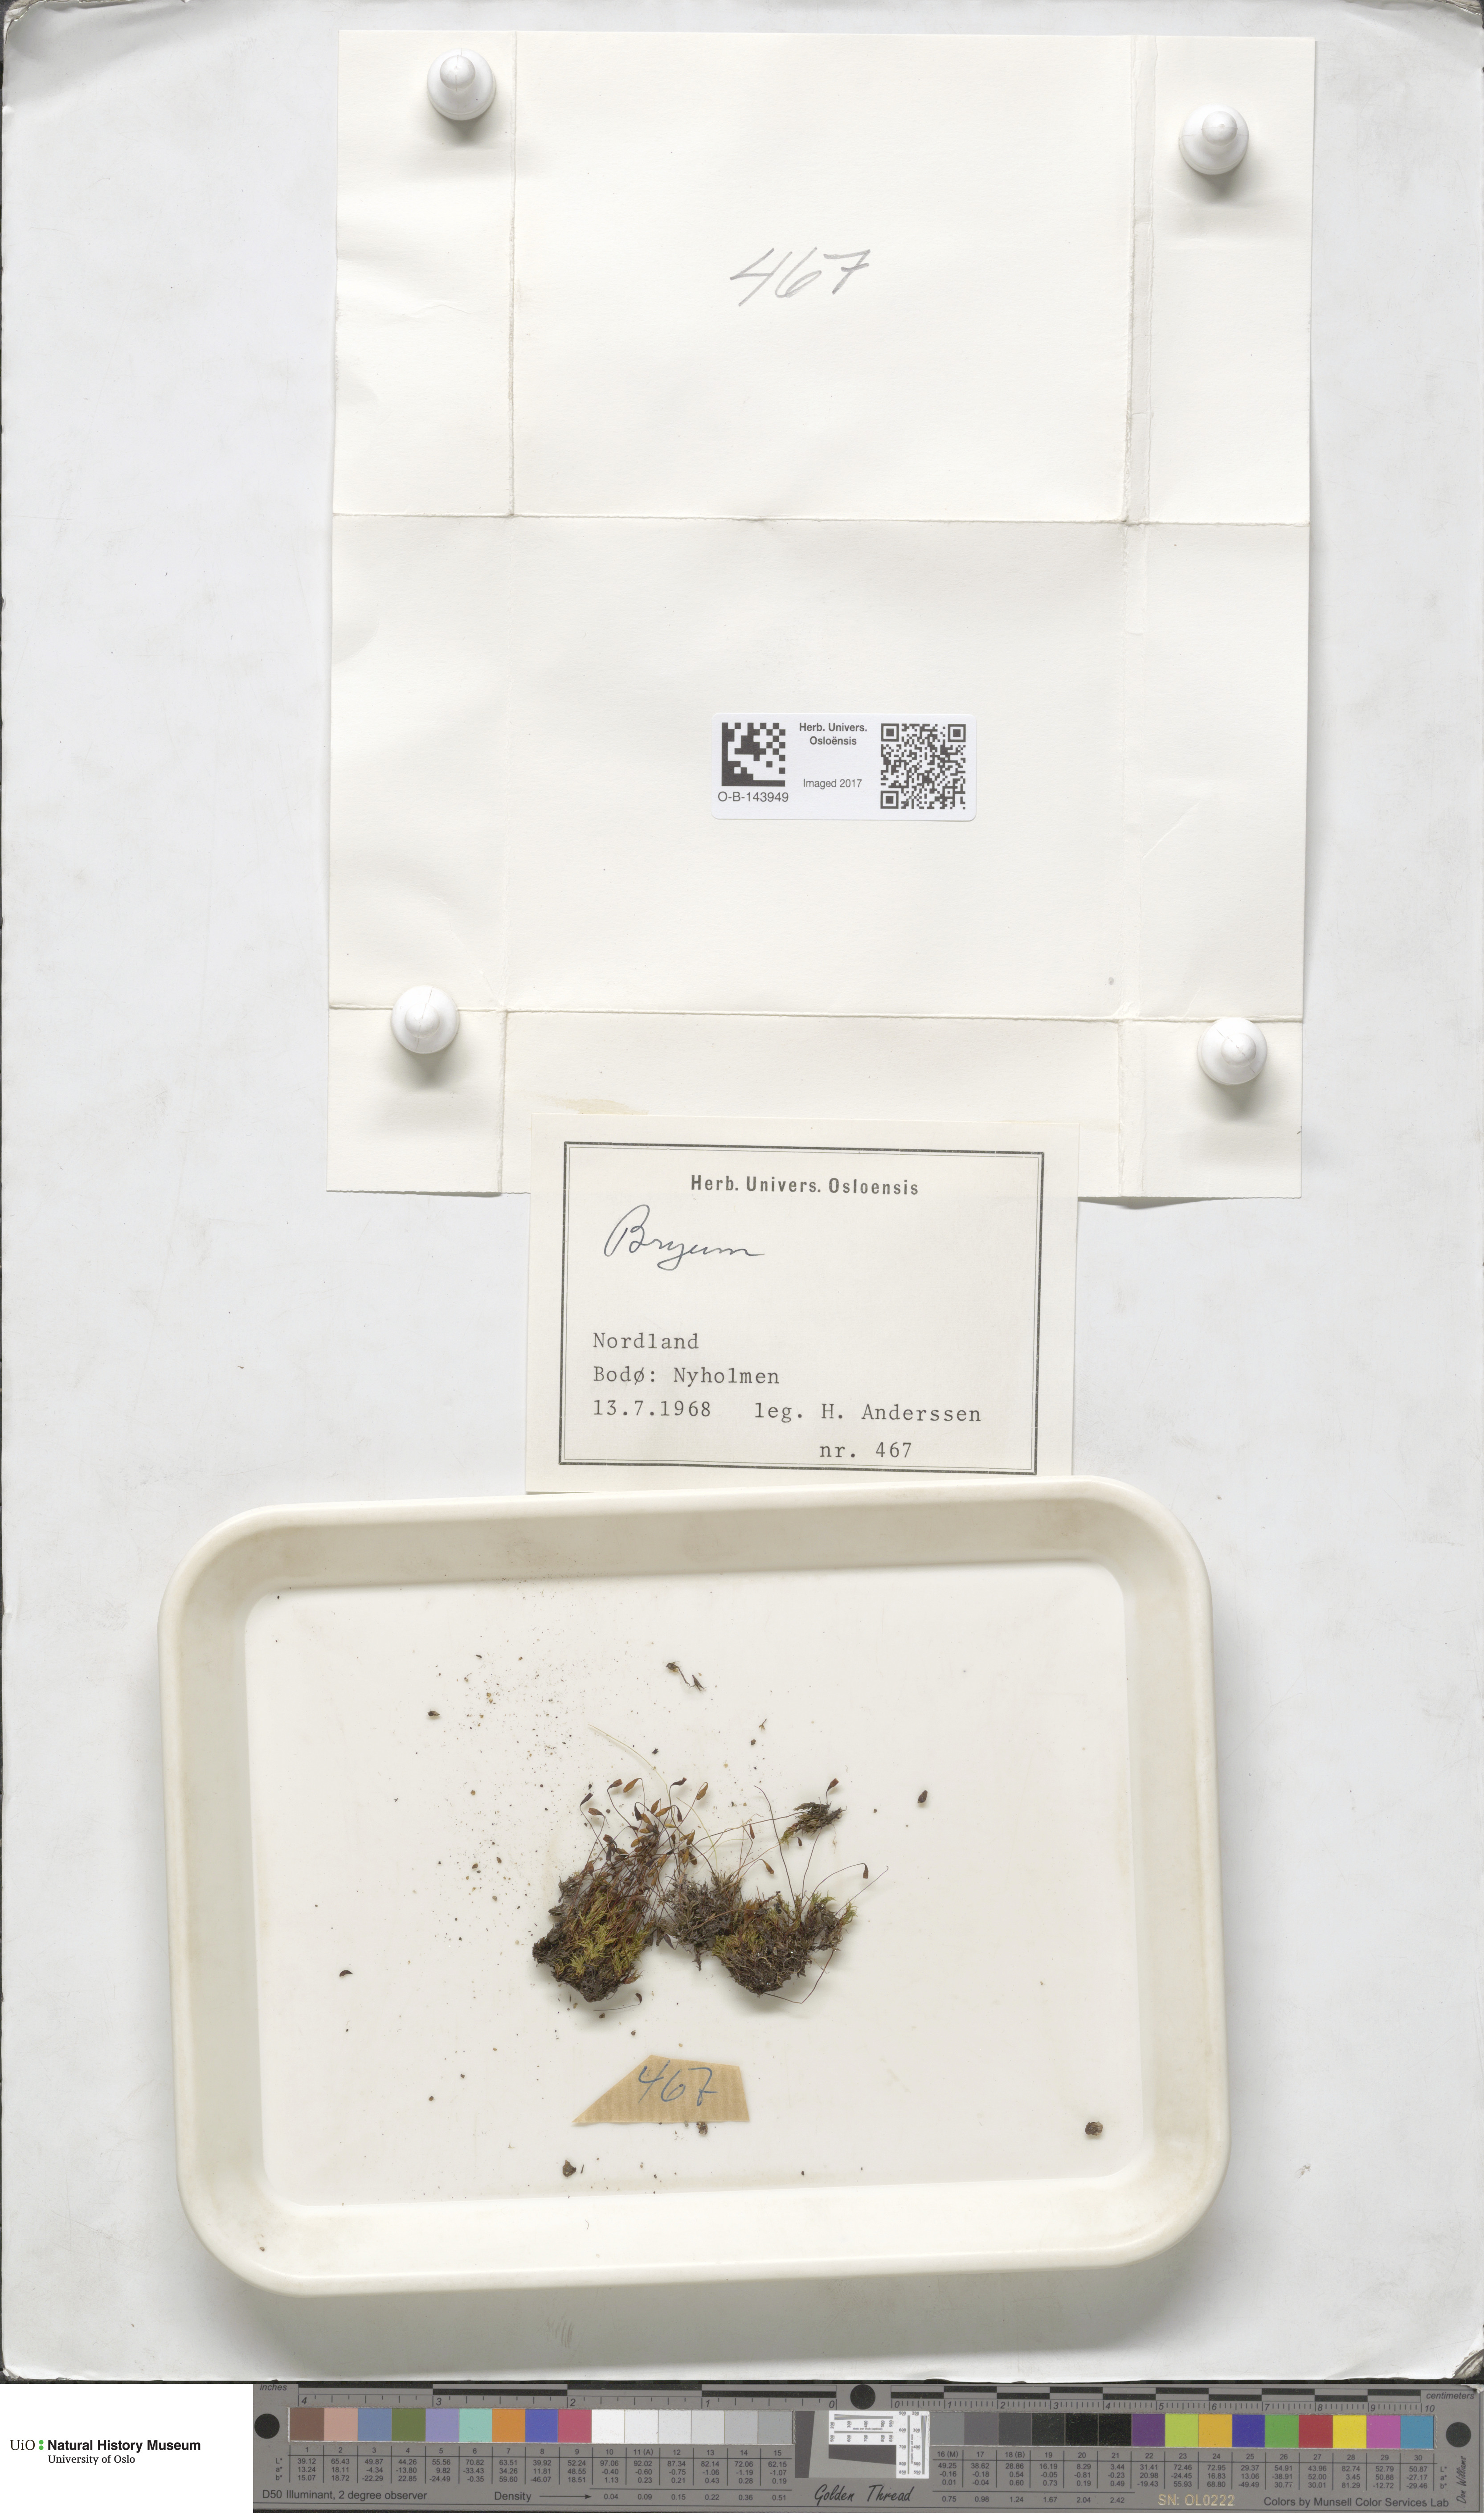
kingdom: Plantae
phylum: Bryophyta
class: Bryopsida
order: Bryales
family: Bryaceae
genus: Bryum
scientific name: Bryum
